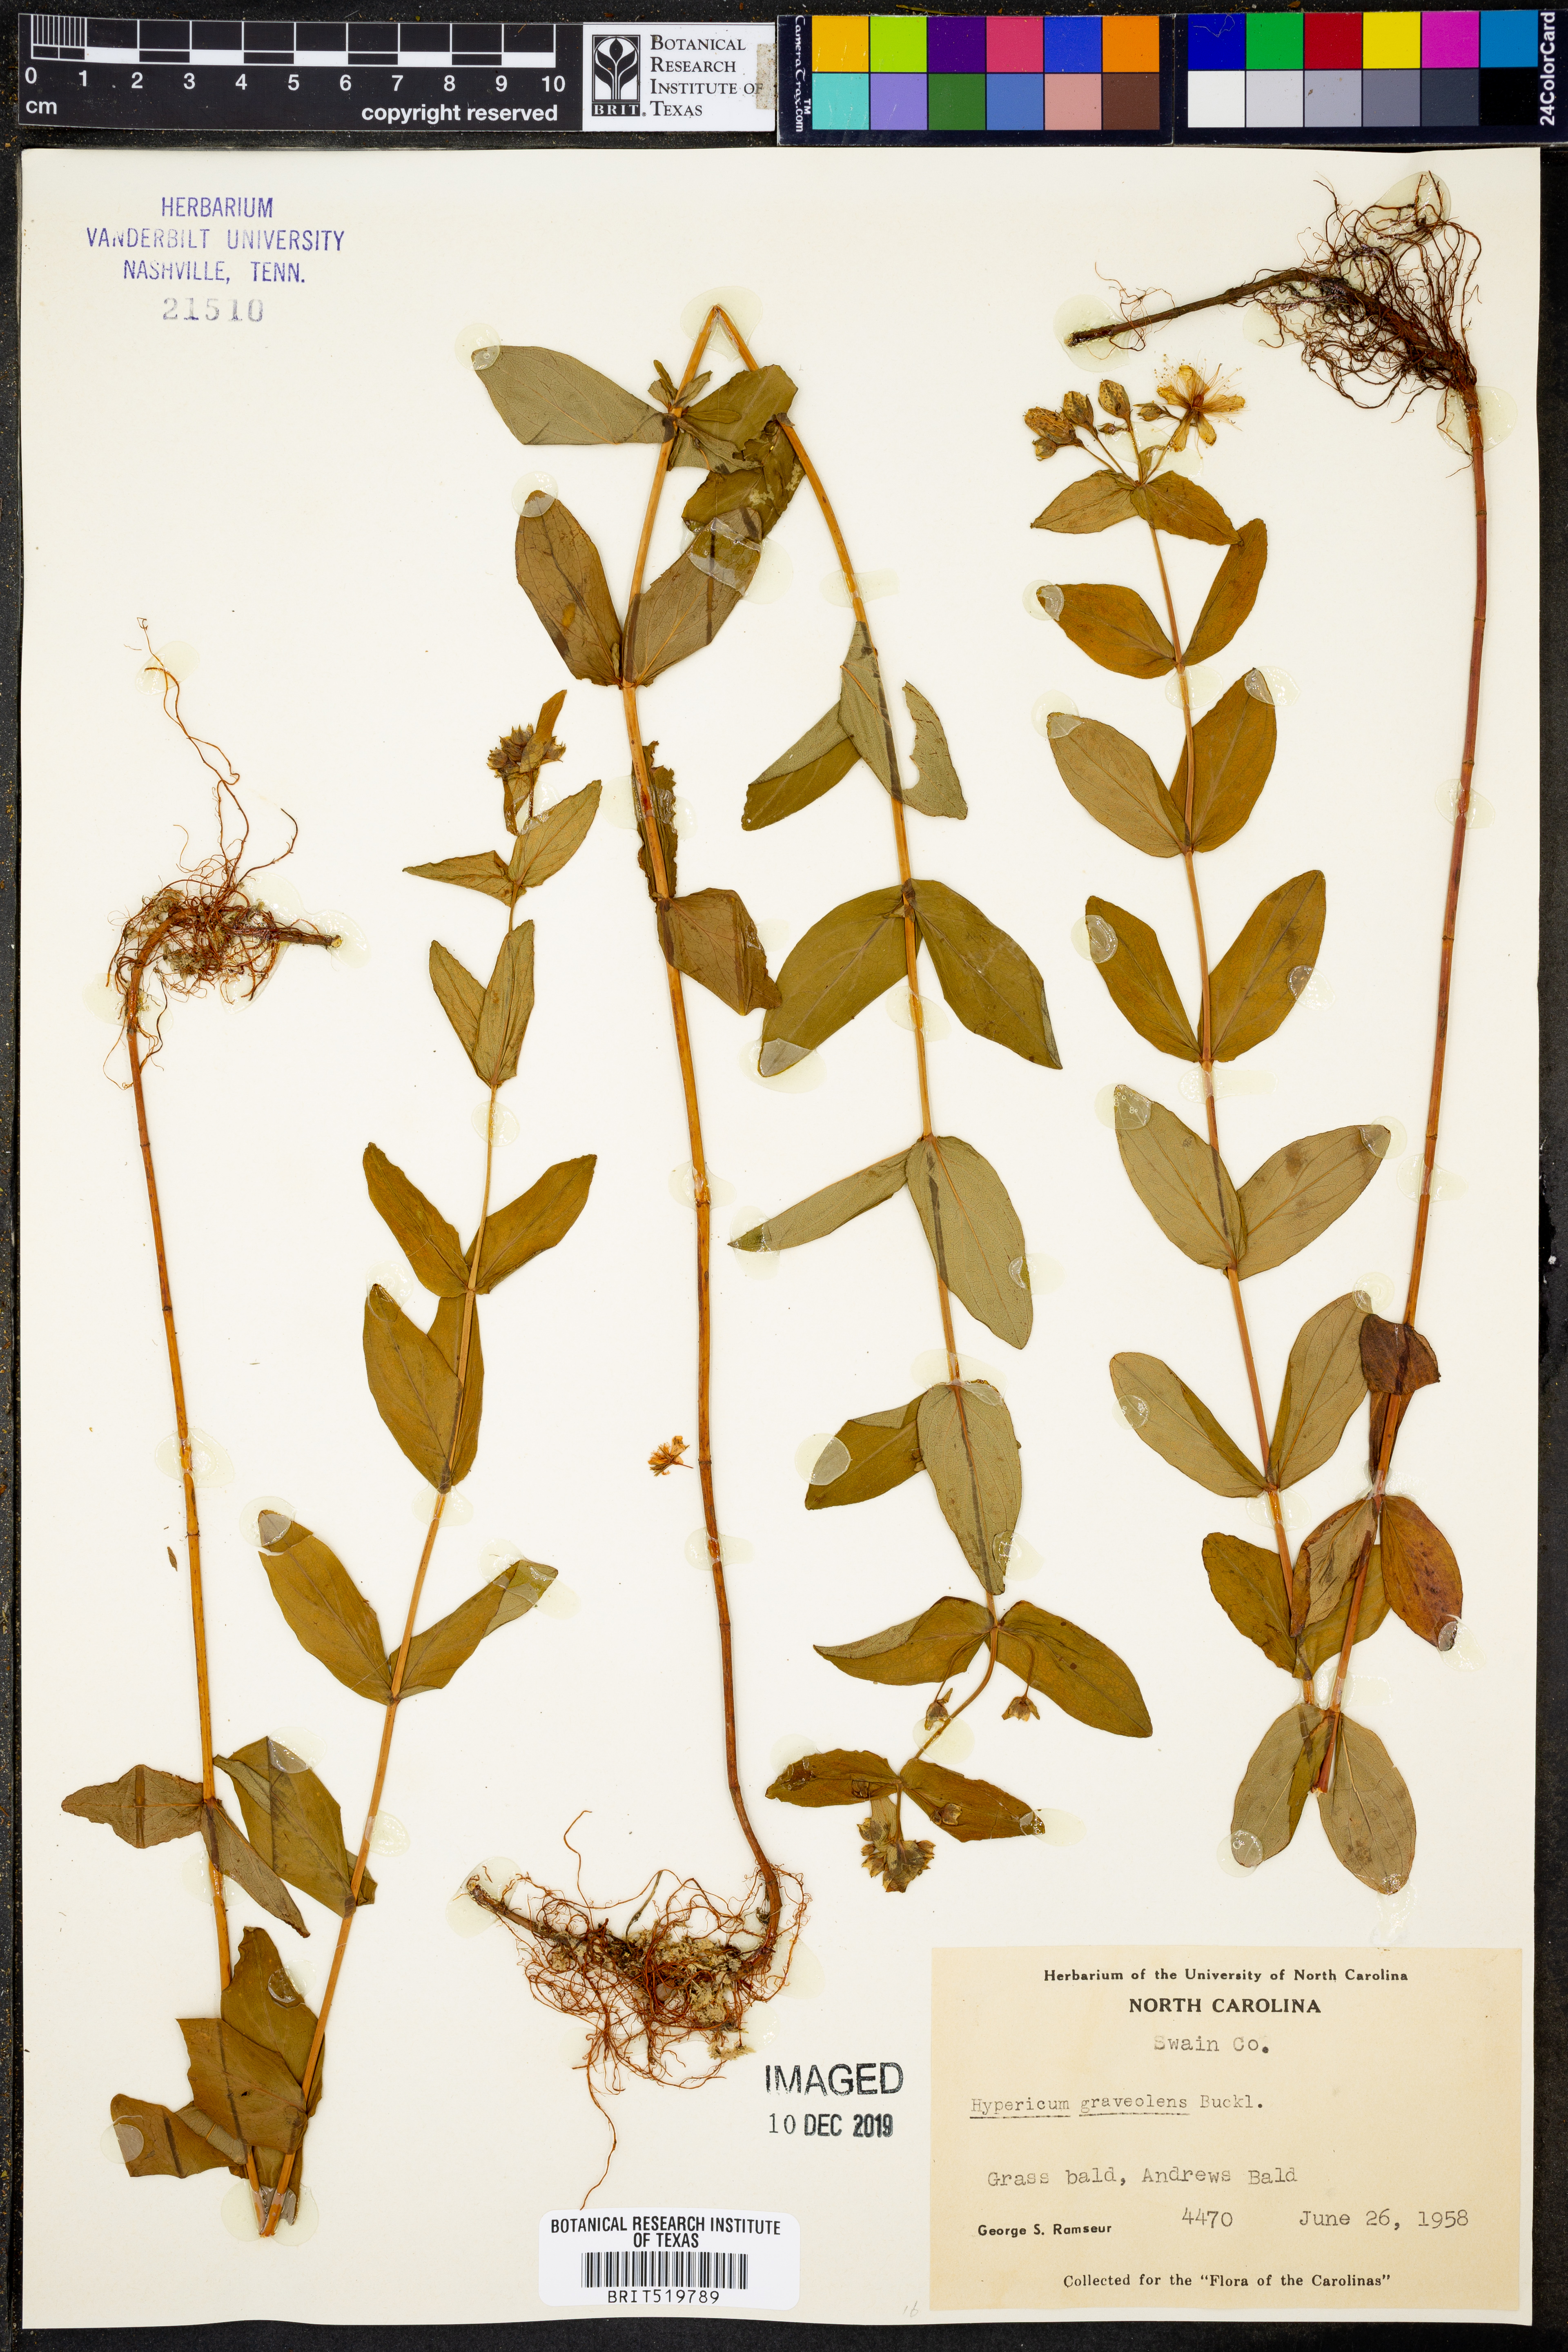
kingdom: Plantae
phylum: Tracheophyta
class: Magnoliopsida
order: Malpighiales
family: Hypericaceae
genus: Hypericum
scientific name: Hypericum graveolens
